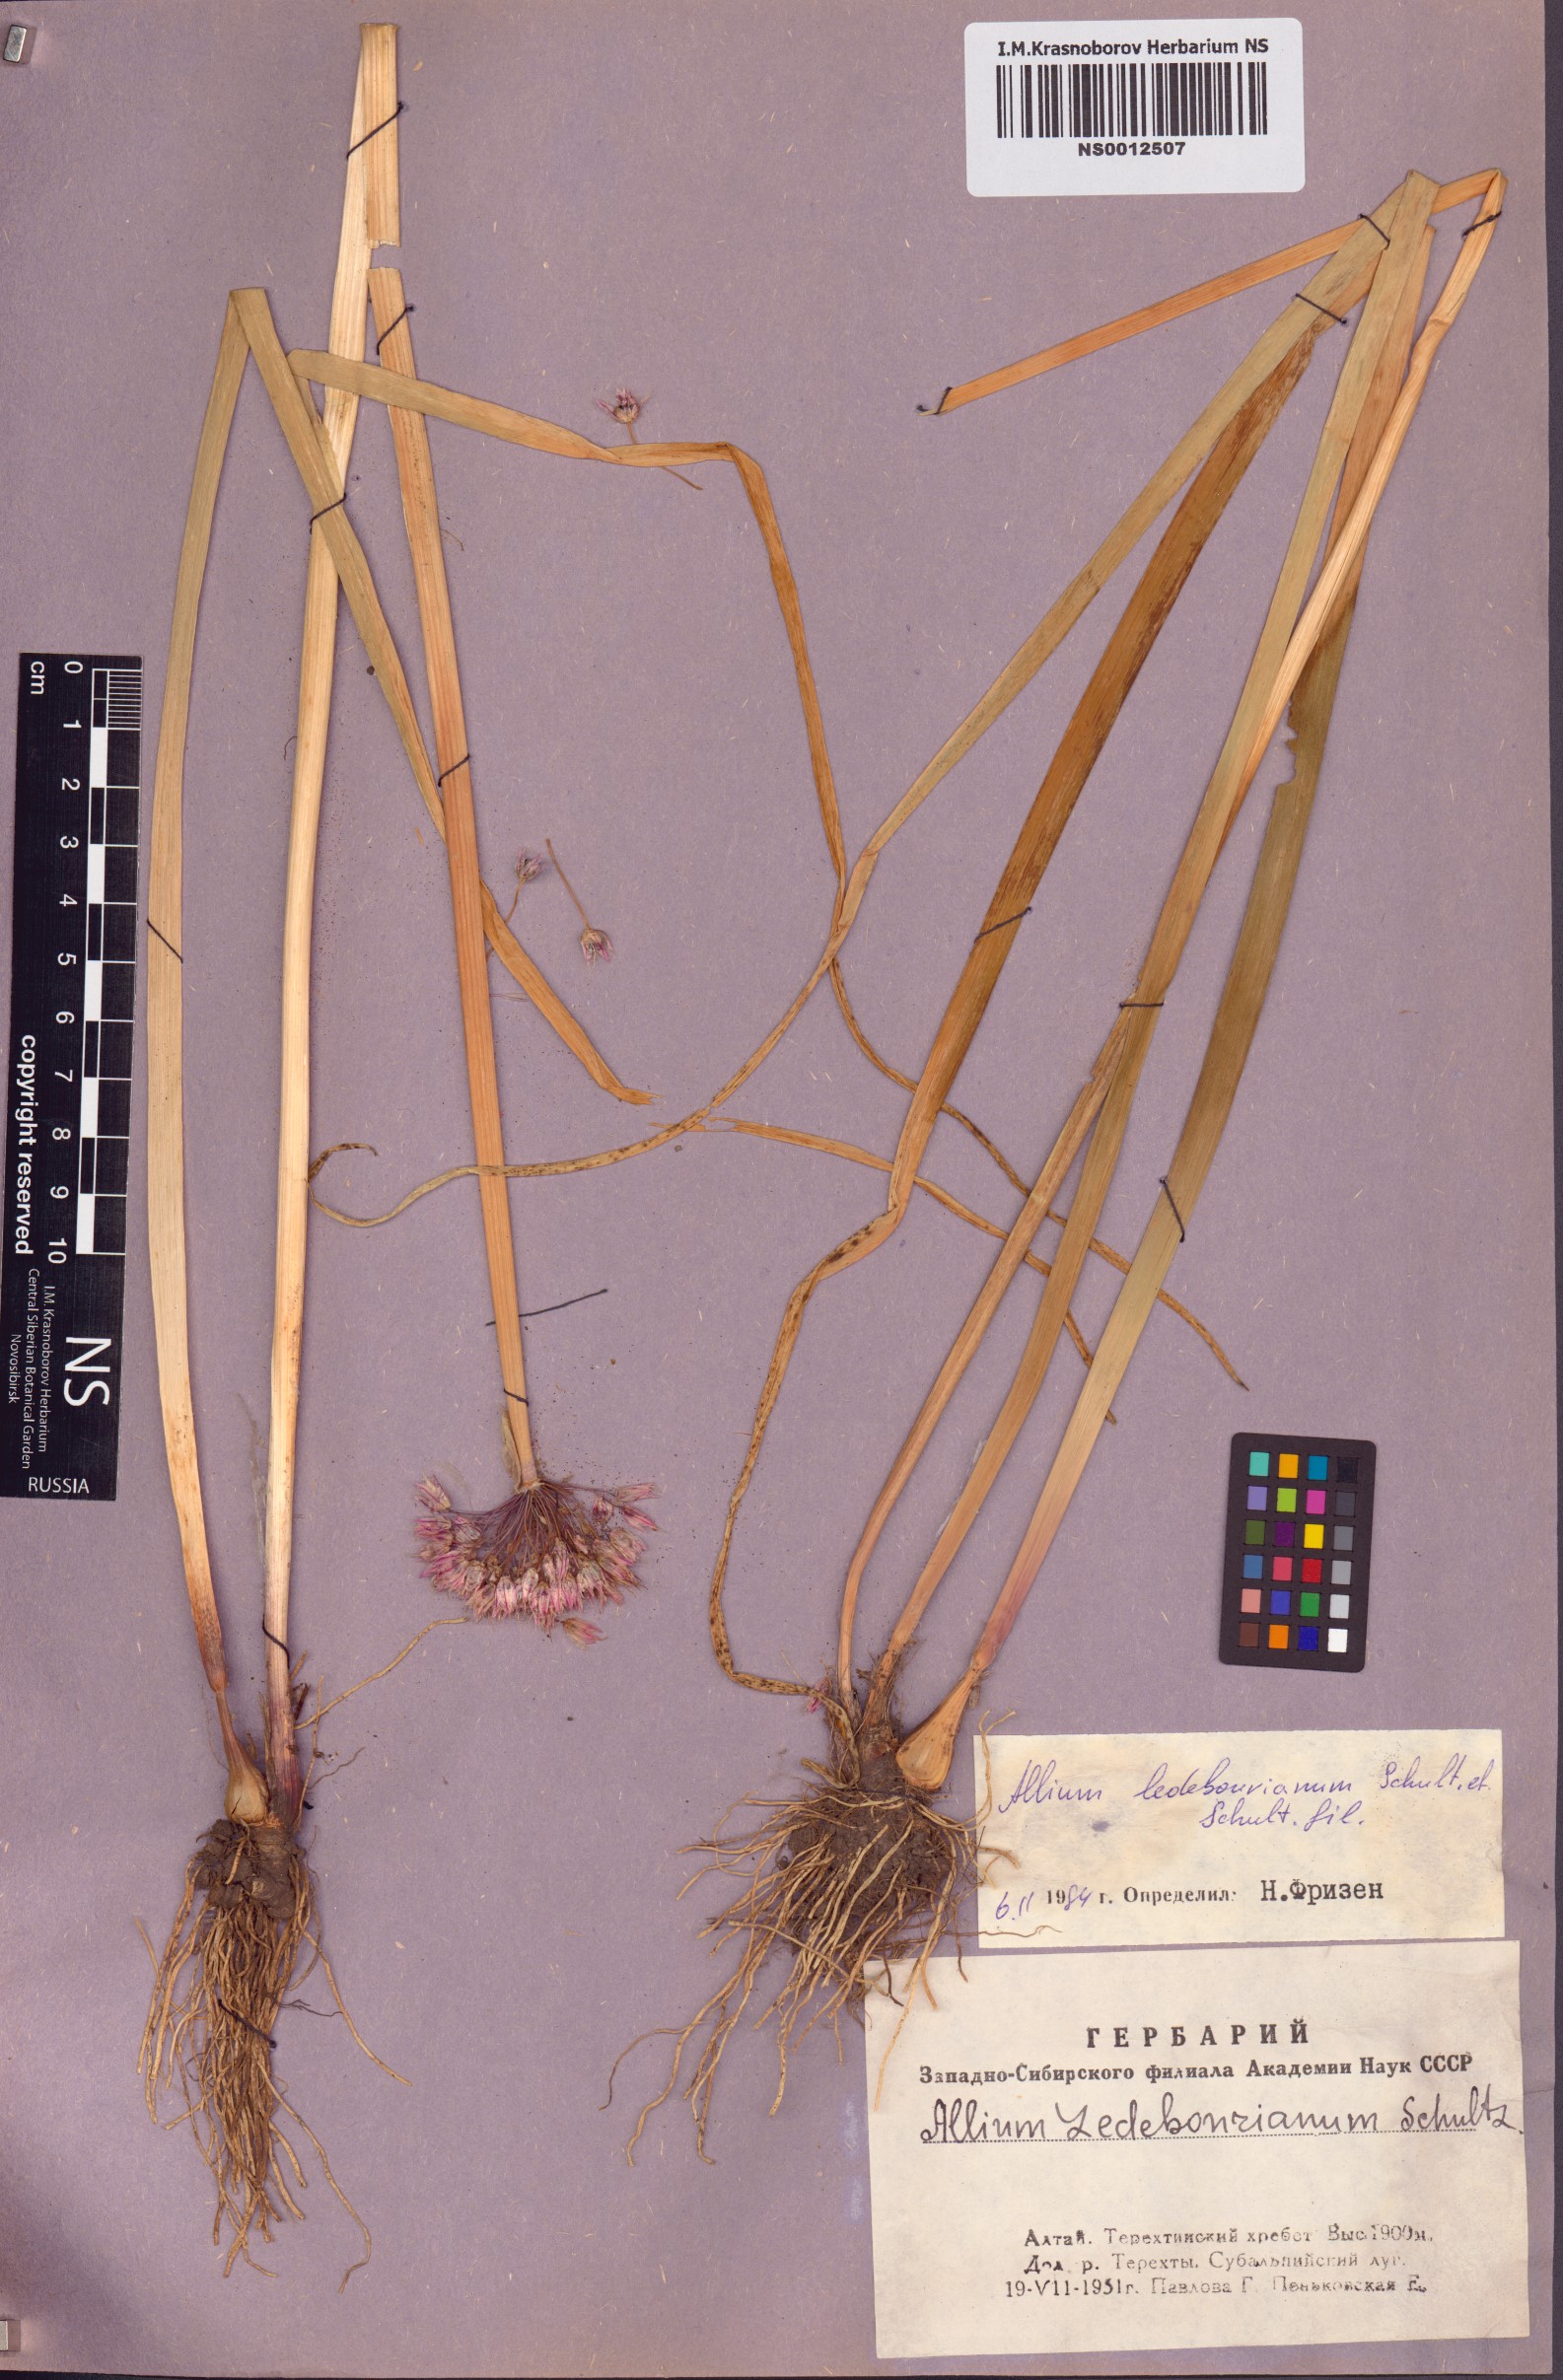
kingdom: Plantae
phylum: Tracheophyta
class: Liliopsida
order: Asparagales
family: Amaryllidaceae
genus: Allium
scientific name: Allium ledebourianum
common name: Ledebour chive
